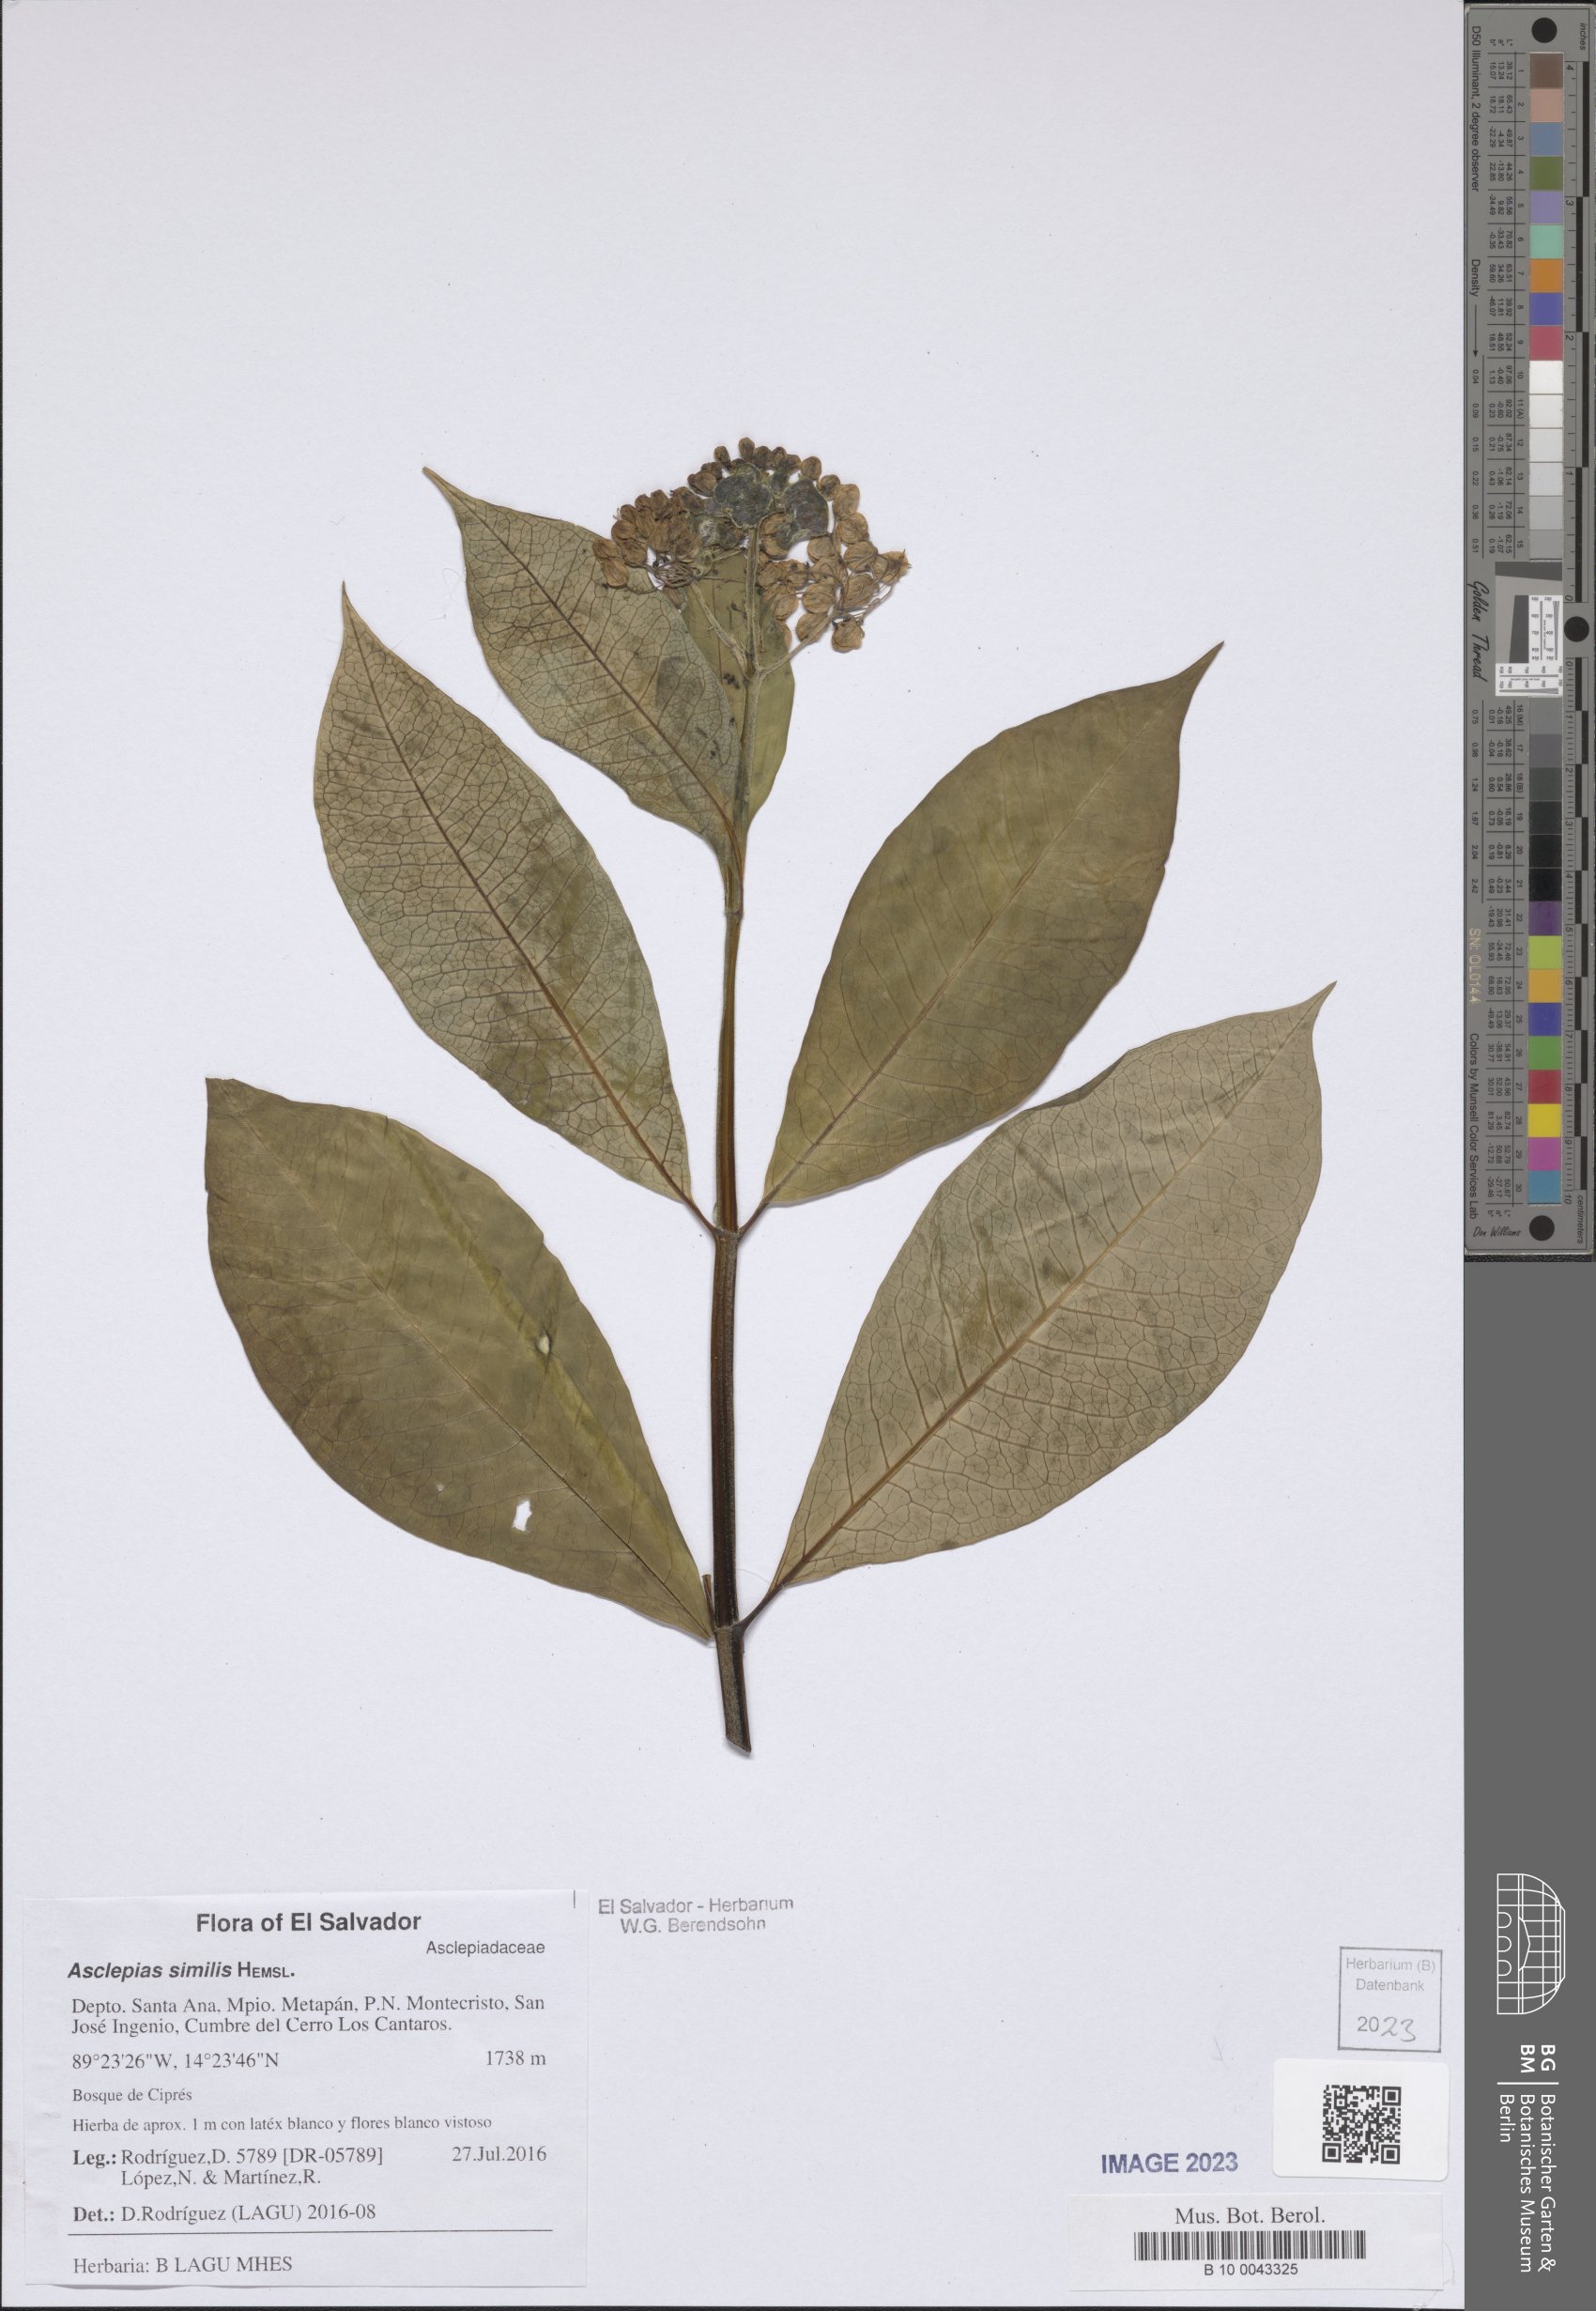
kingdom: Plantae
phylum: Tracheophyta
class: Magnoliopsida
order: Gentianales
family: Apocynaceae
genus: Asclepias
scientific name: Asclepias similis
